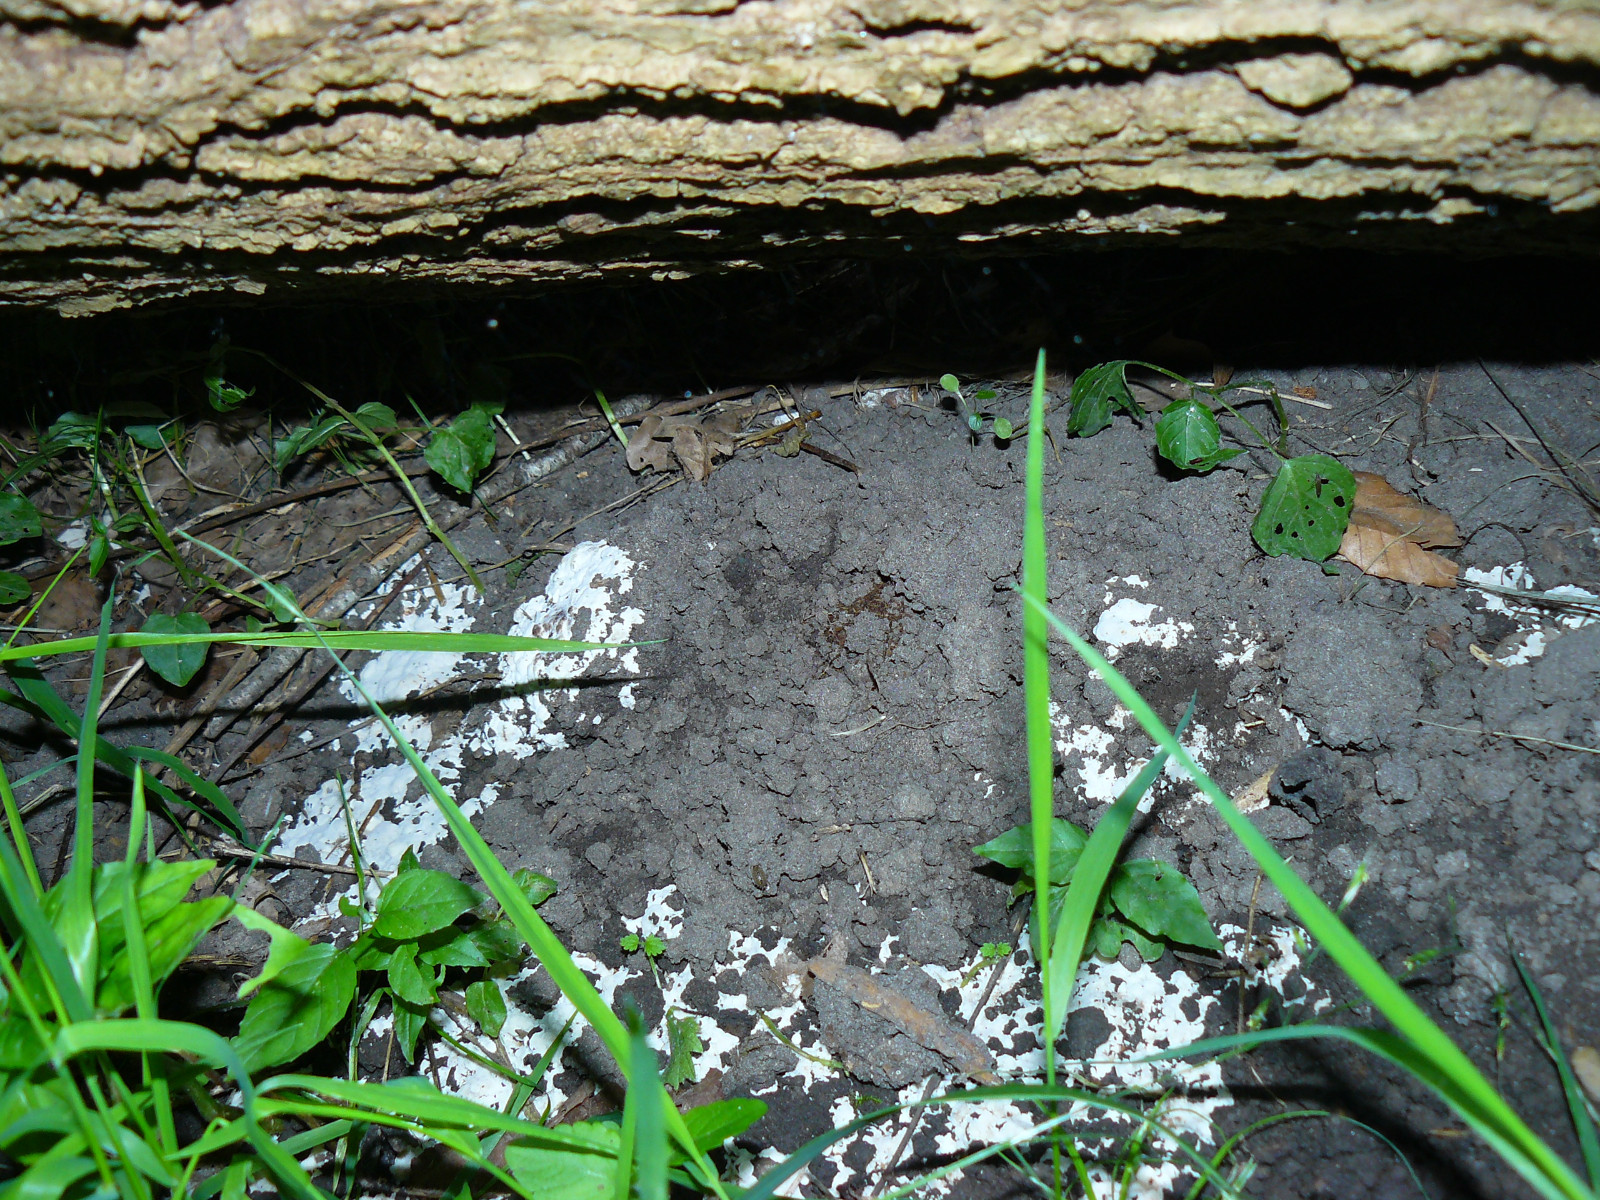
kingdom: Fungi
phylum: Basidiomycota
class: Agaricomycetes
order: Polyporales
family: Meripilaceae
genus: Rigidoporus
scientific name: Rigidoporus sanguinolentus
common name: blod-skorpeporesvamp
